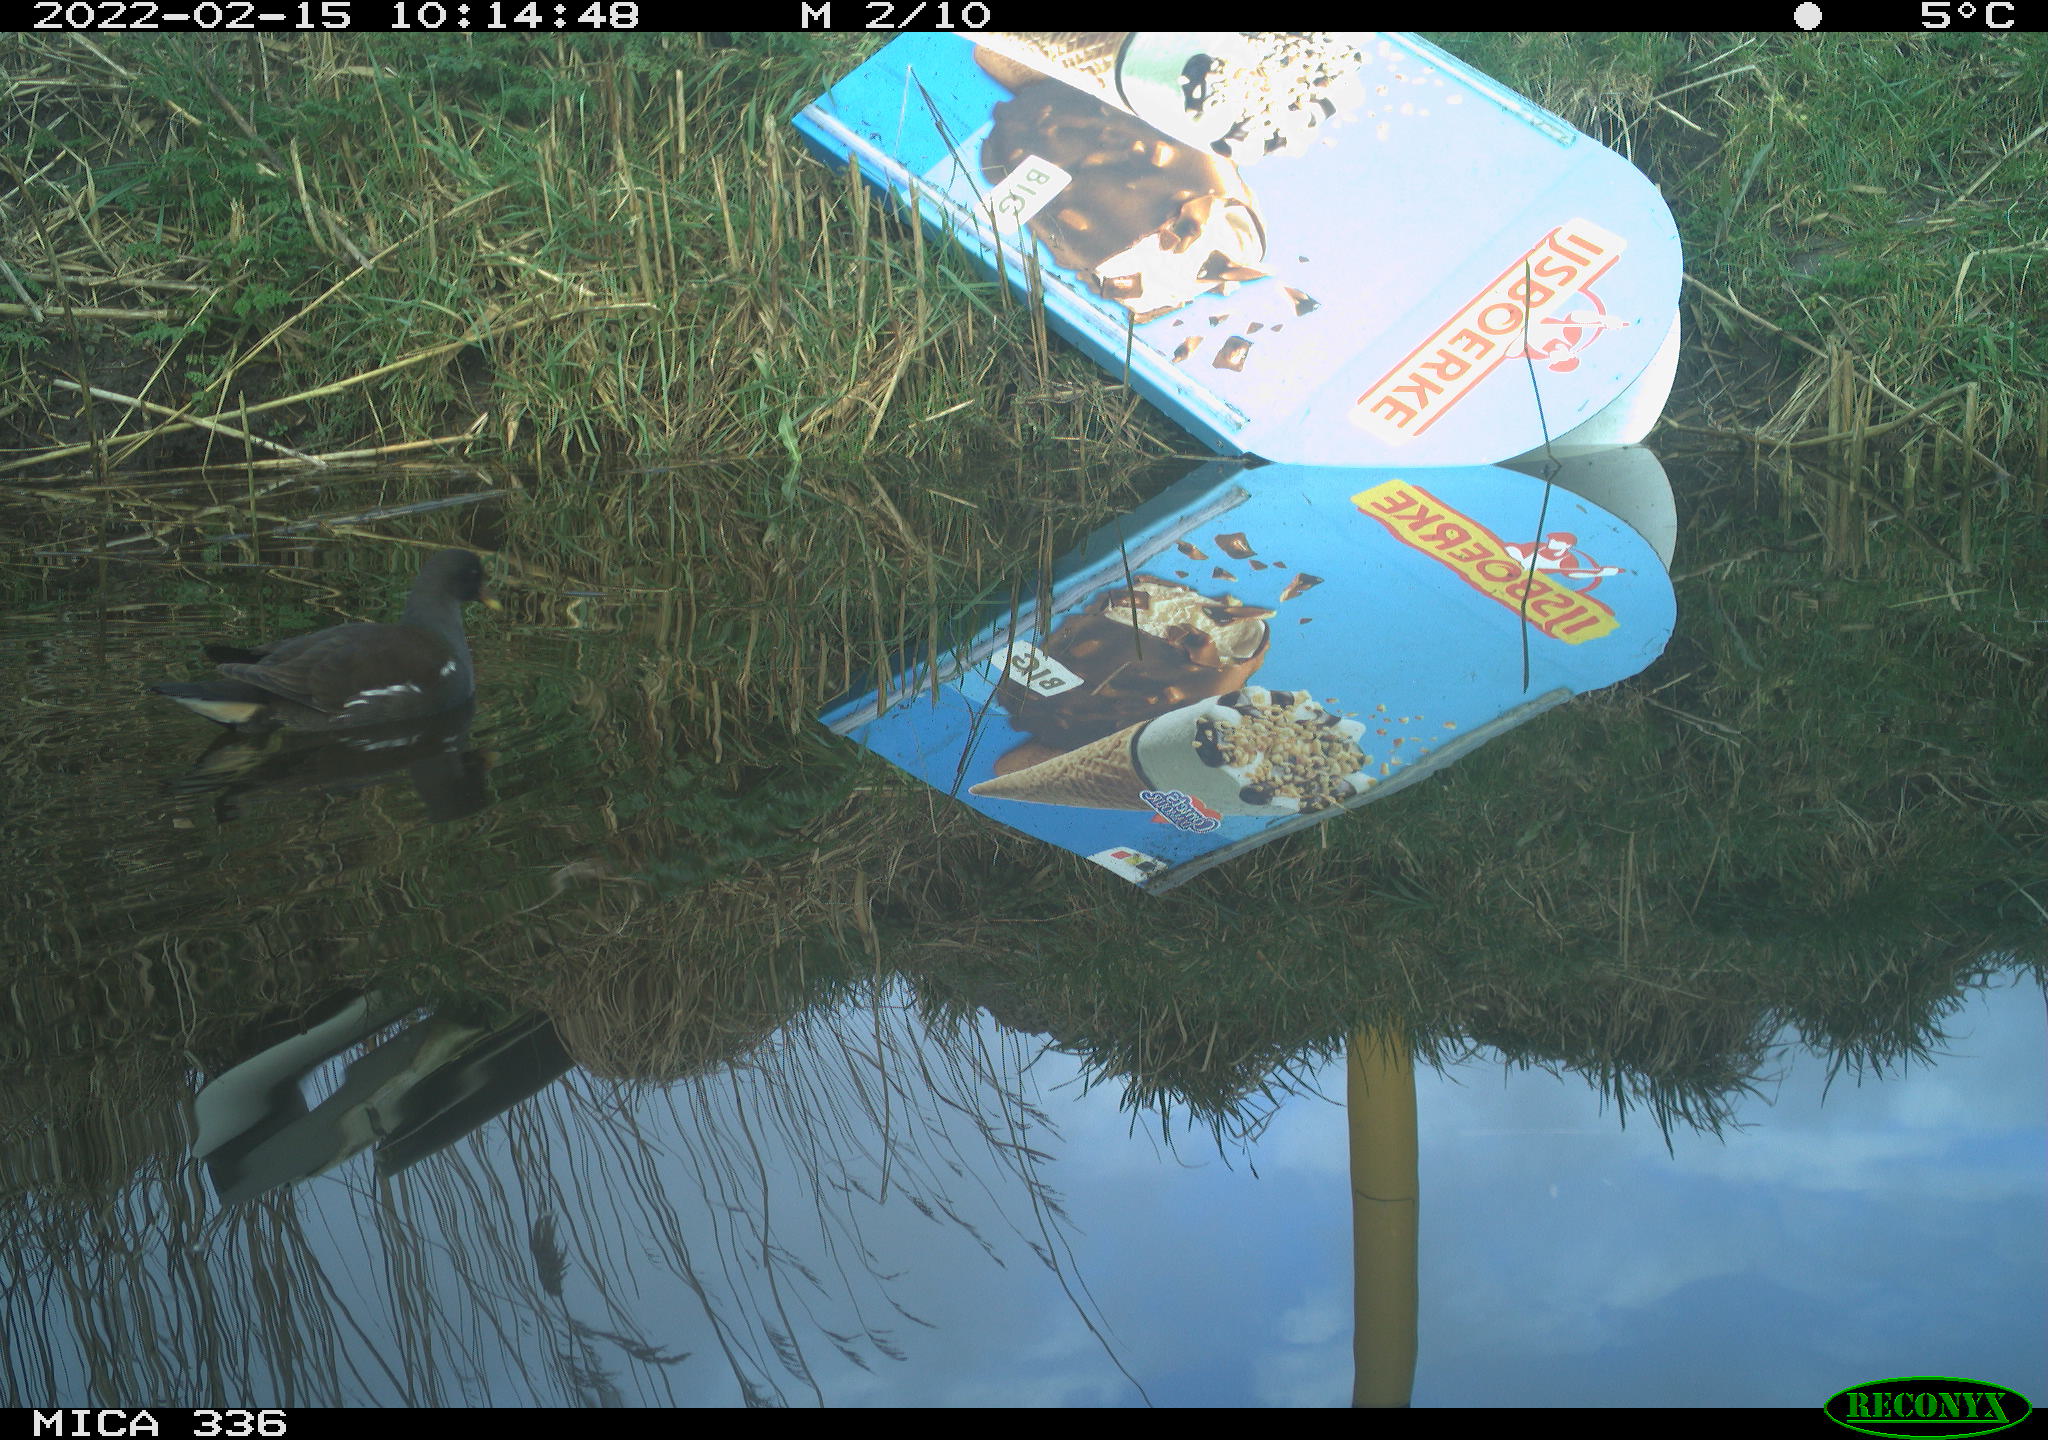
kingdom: Animalia
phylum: Chordata
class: Aves
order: Gruiformes
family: Rallidae
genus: Gallinula
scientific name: Gallinula chloropus
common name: Common moorhen
